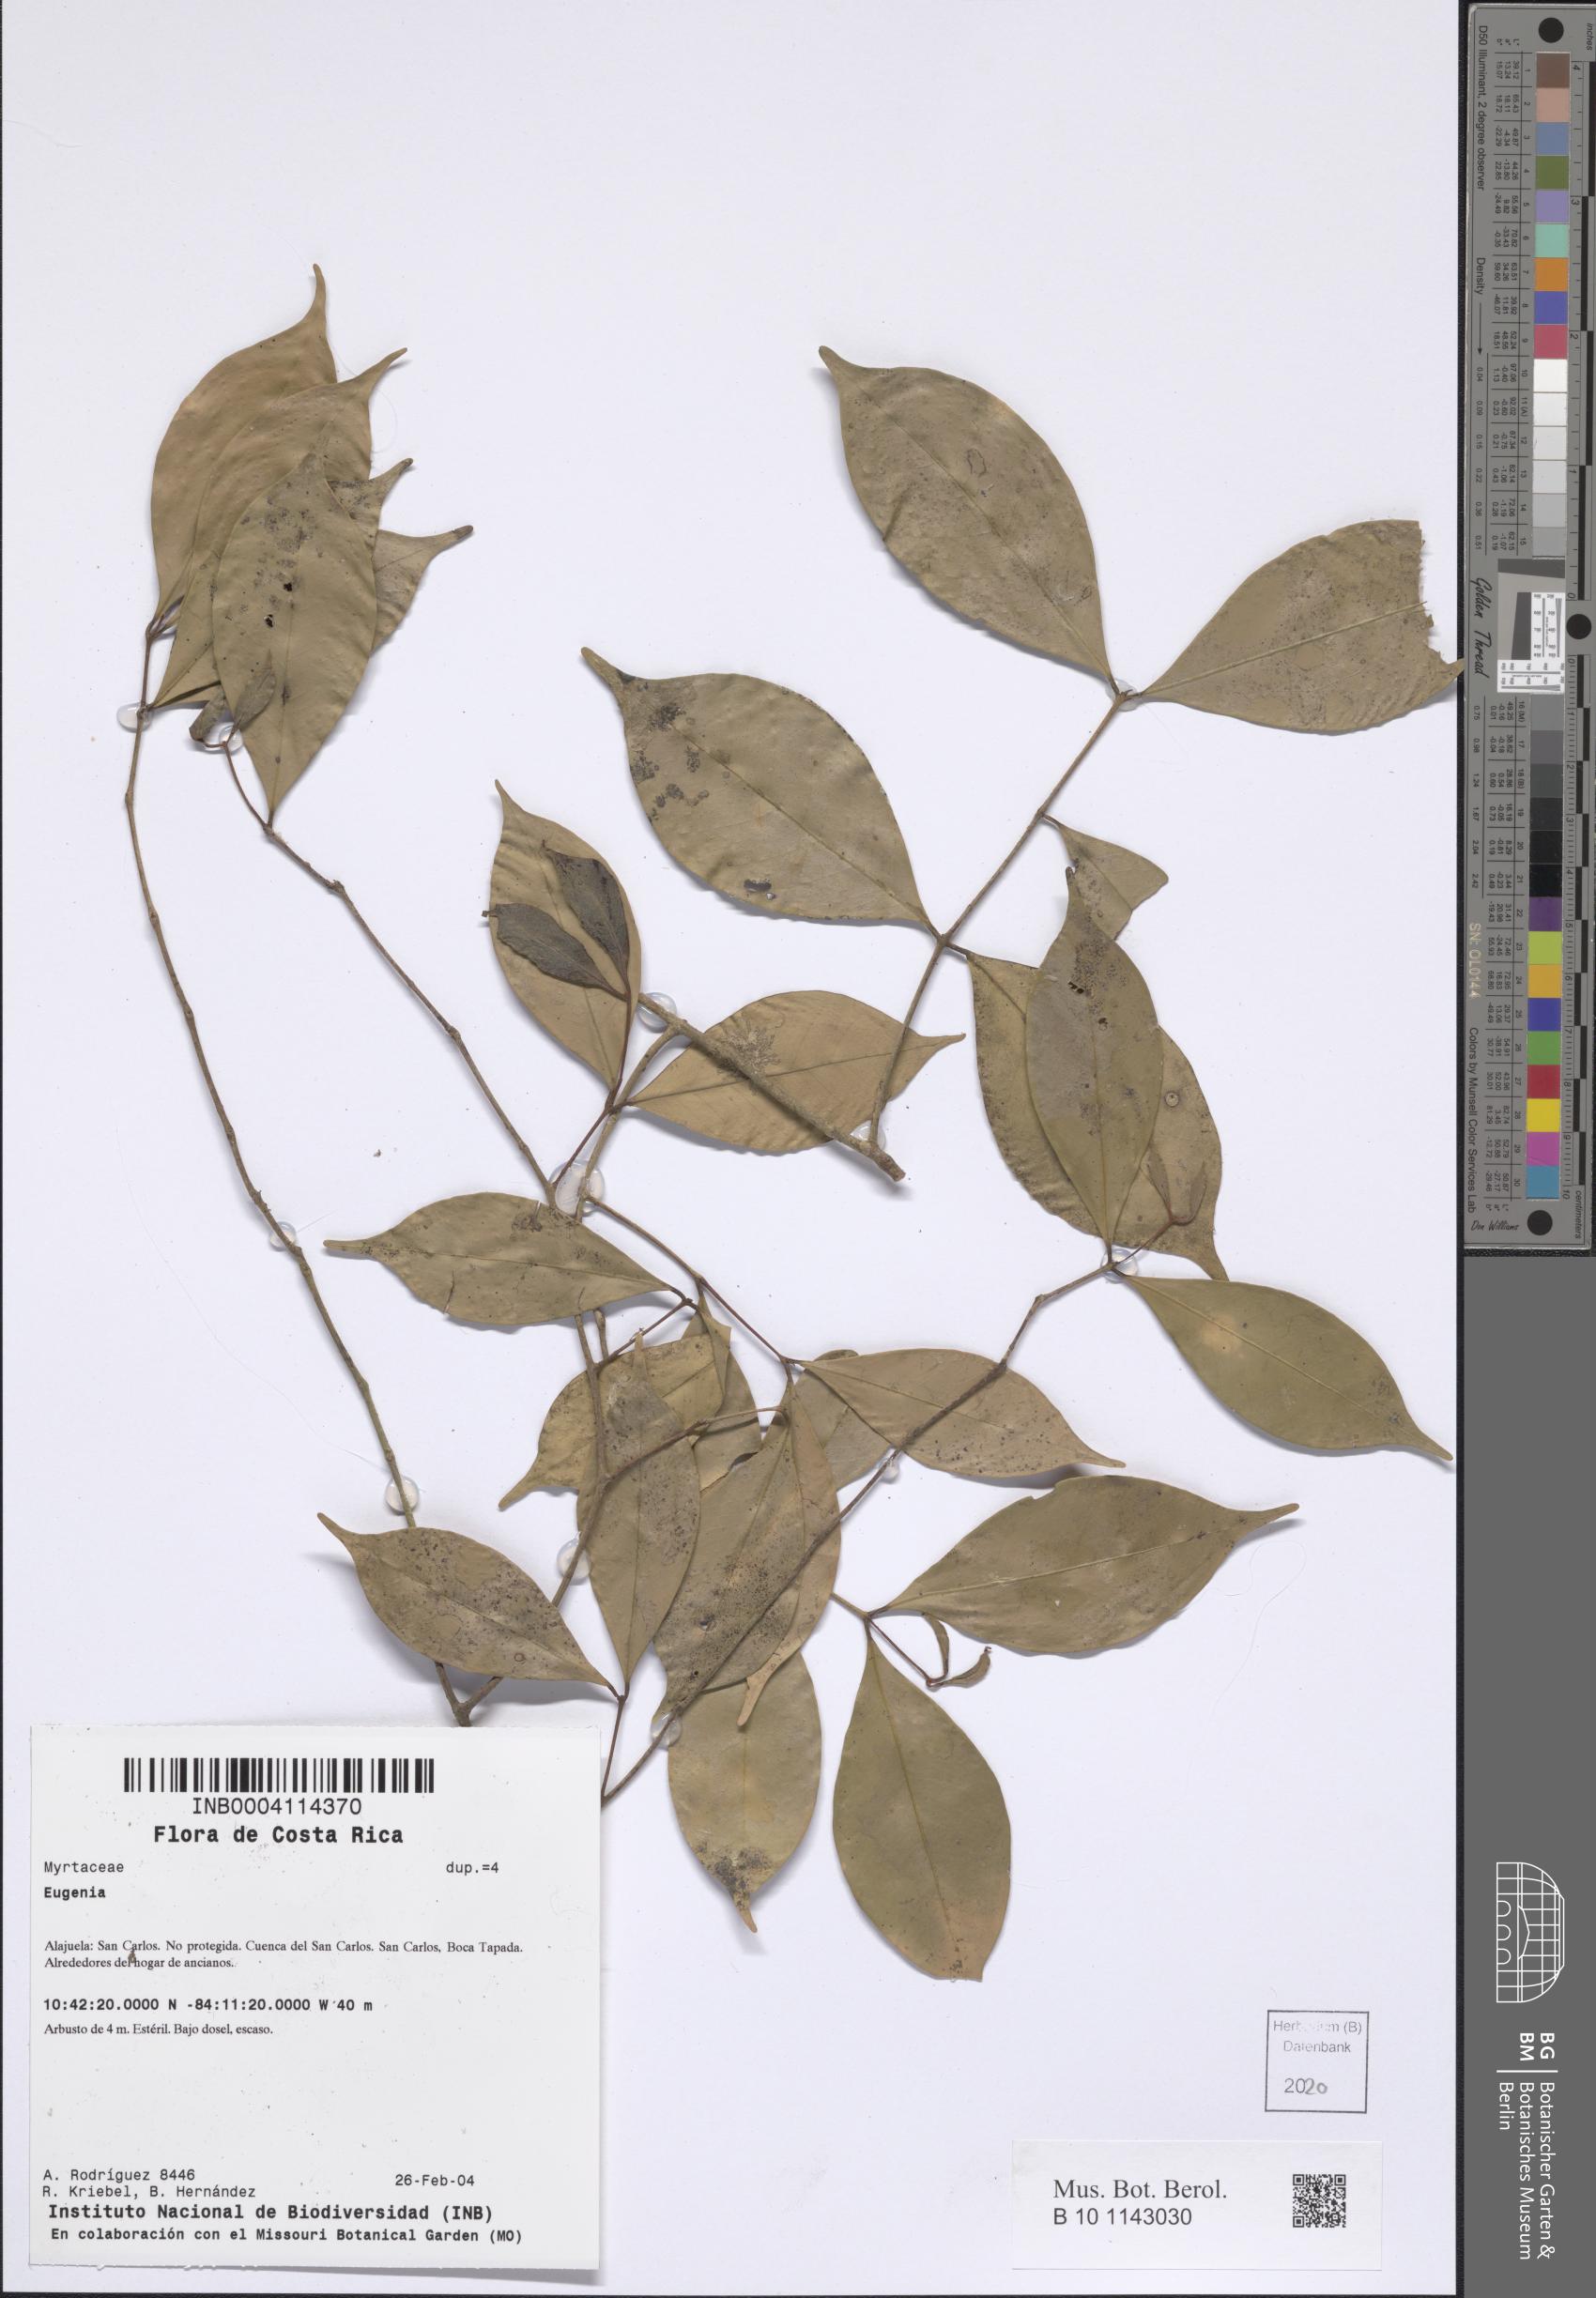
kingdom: Plantae
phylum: Tracheophyta
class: Magnoliopsida
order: Myrtales
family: Myrtaceae
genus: Eugenia
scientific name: Eugenia
